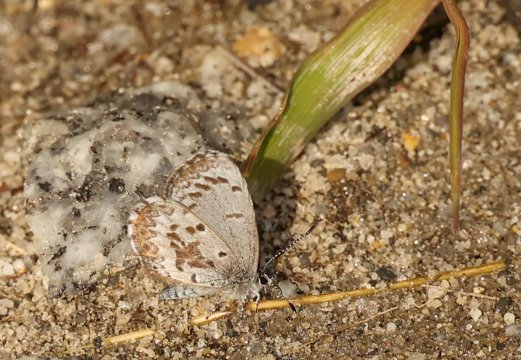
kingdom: Animalia
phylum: Arthropoda
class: Insecta
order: Lepidoptera
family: Lycaenidae
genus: Celastrina
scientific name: Celastrina lucia
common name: Northern Spring Azure
